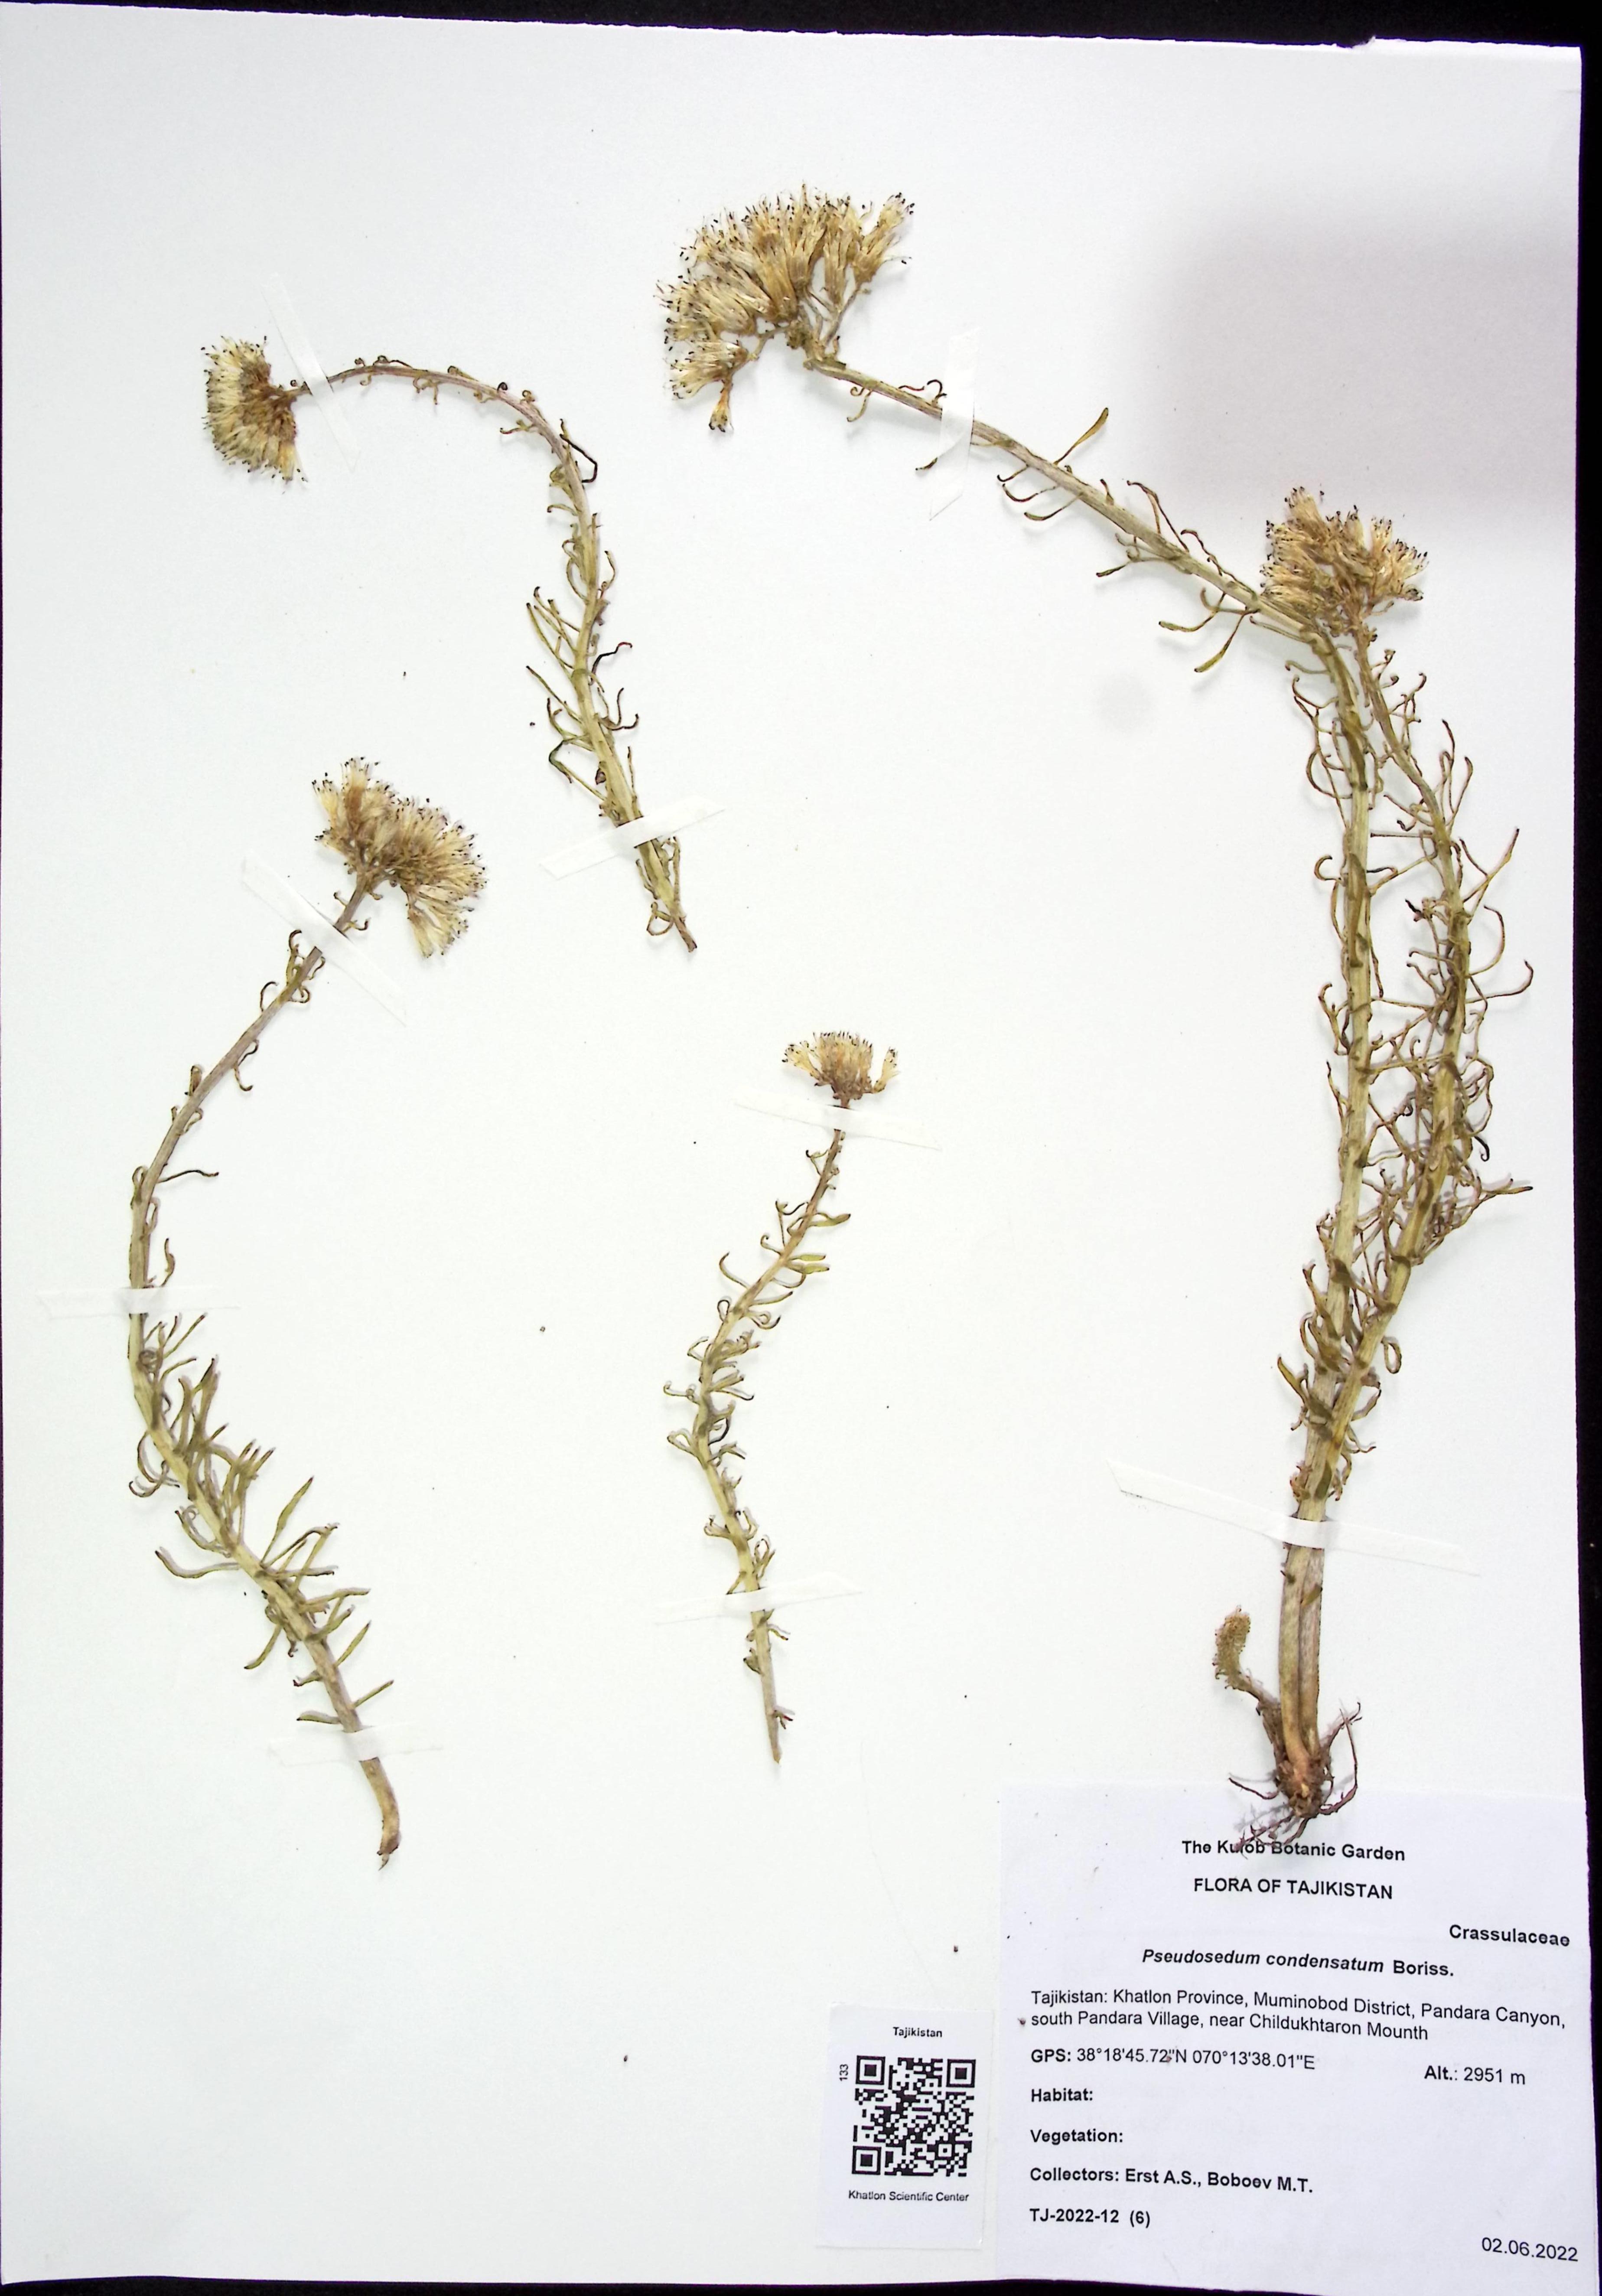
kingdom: Plantae
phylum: Tracheophyta
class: Magnoliopsida
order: Saxifragales
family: Crassulaceae
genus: Pseudosedum
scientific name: Pseudosedum condensatum
